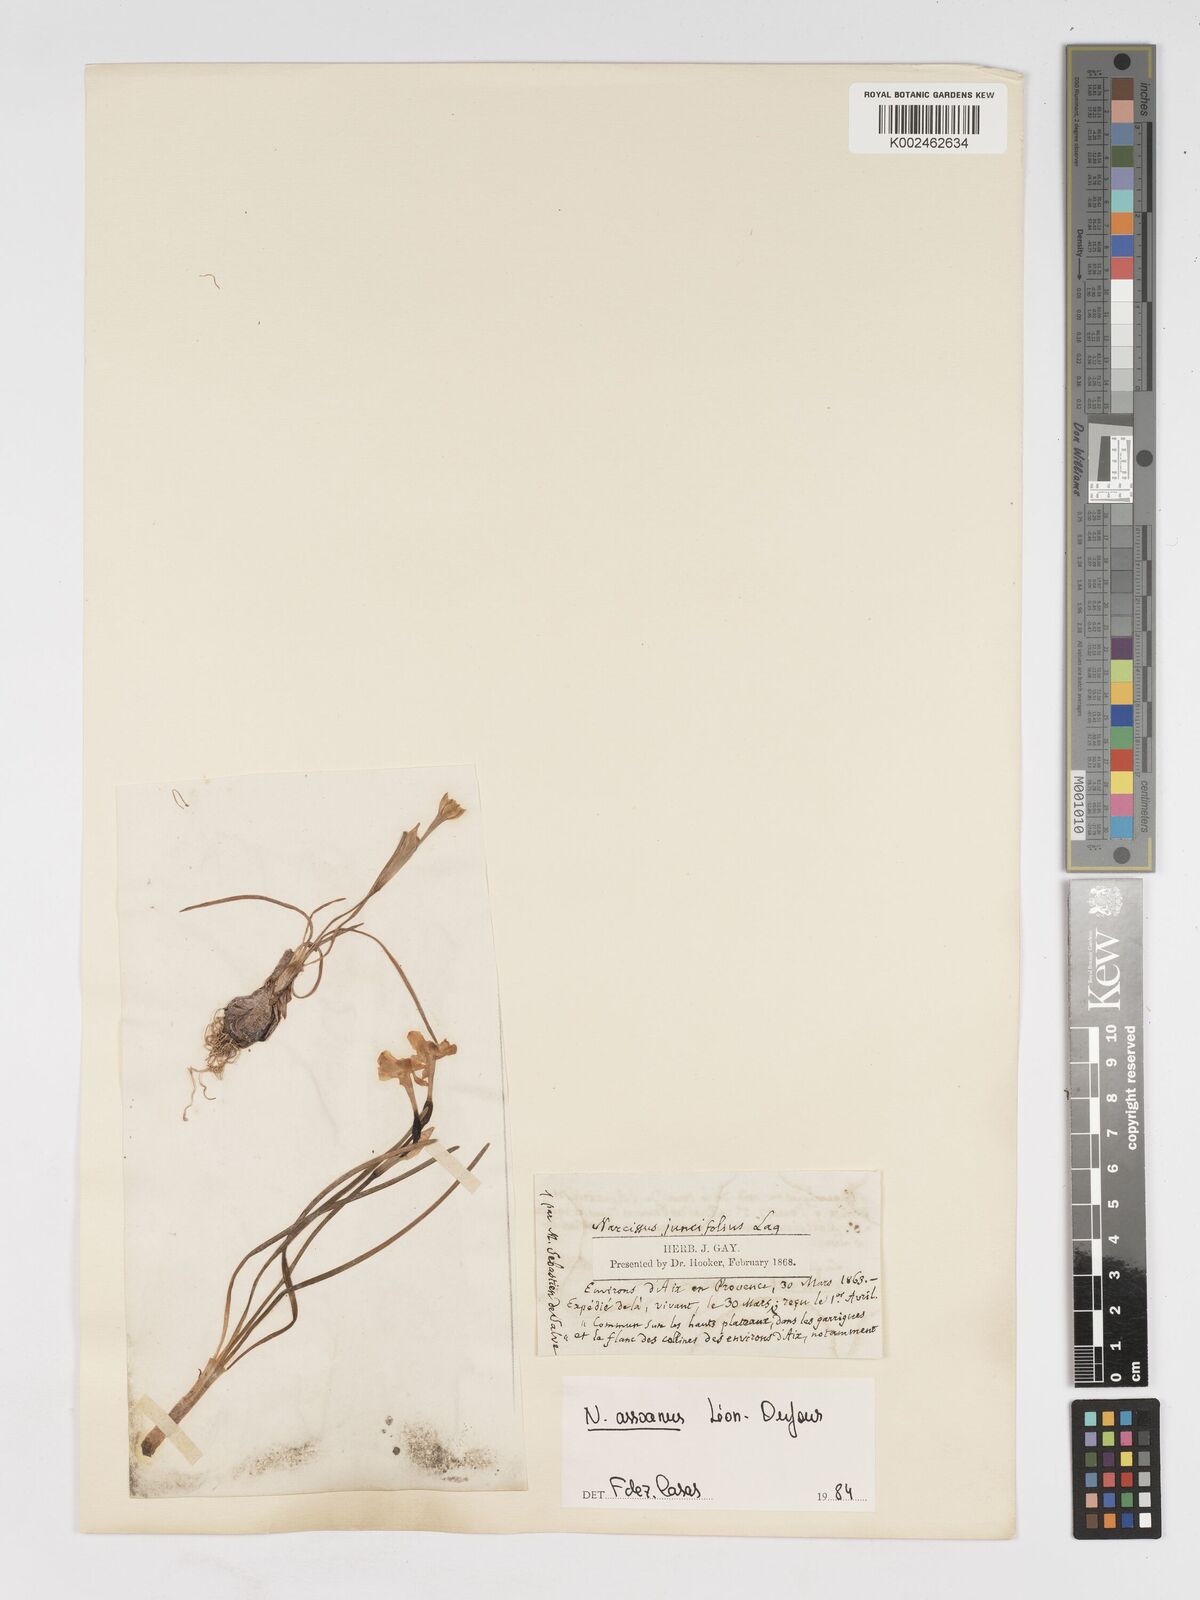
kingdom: Plantae
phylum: Tracheophyta
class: Liliopsida
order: Asparagales
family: Amaryllidaceae
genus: Narcissus
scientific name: Narcissus assoanus
